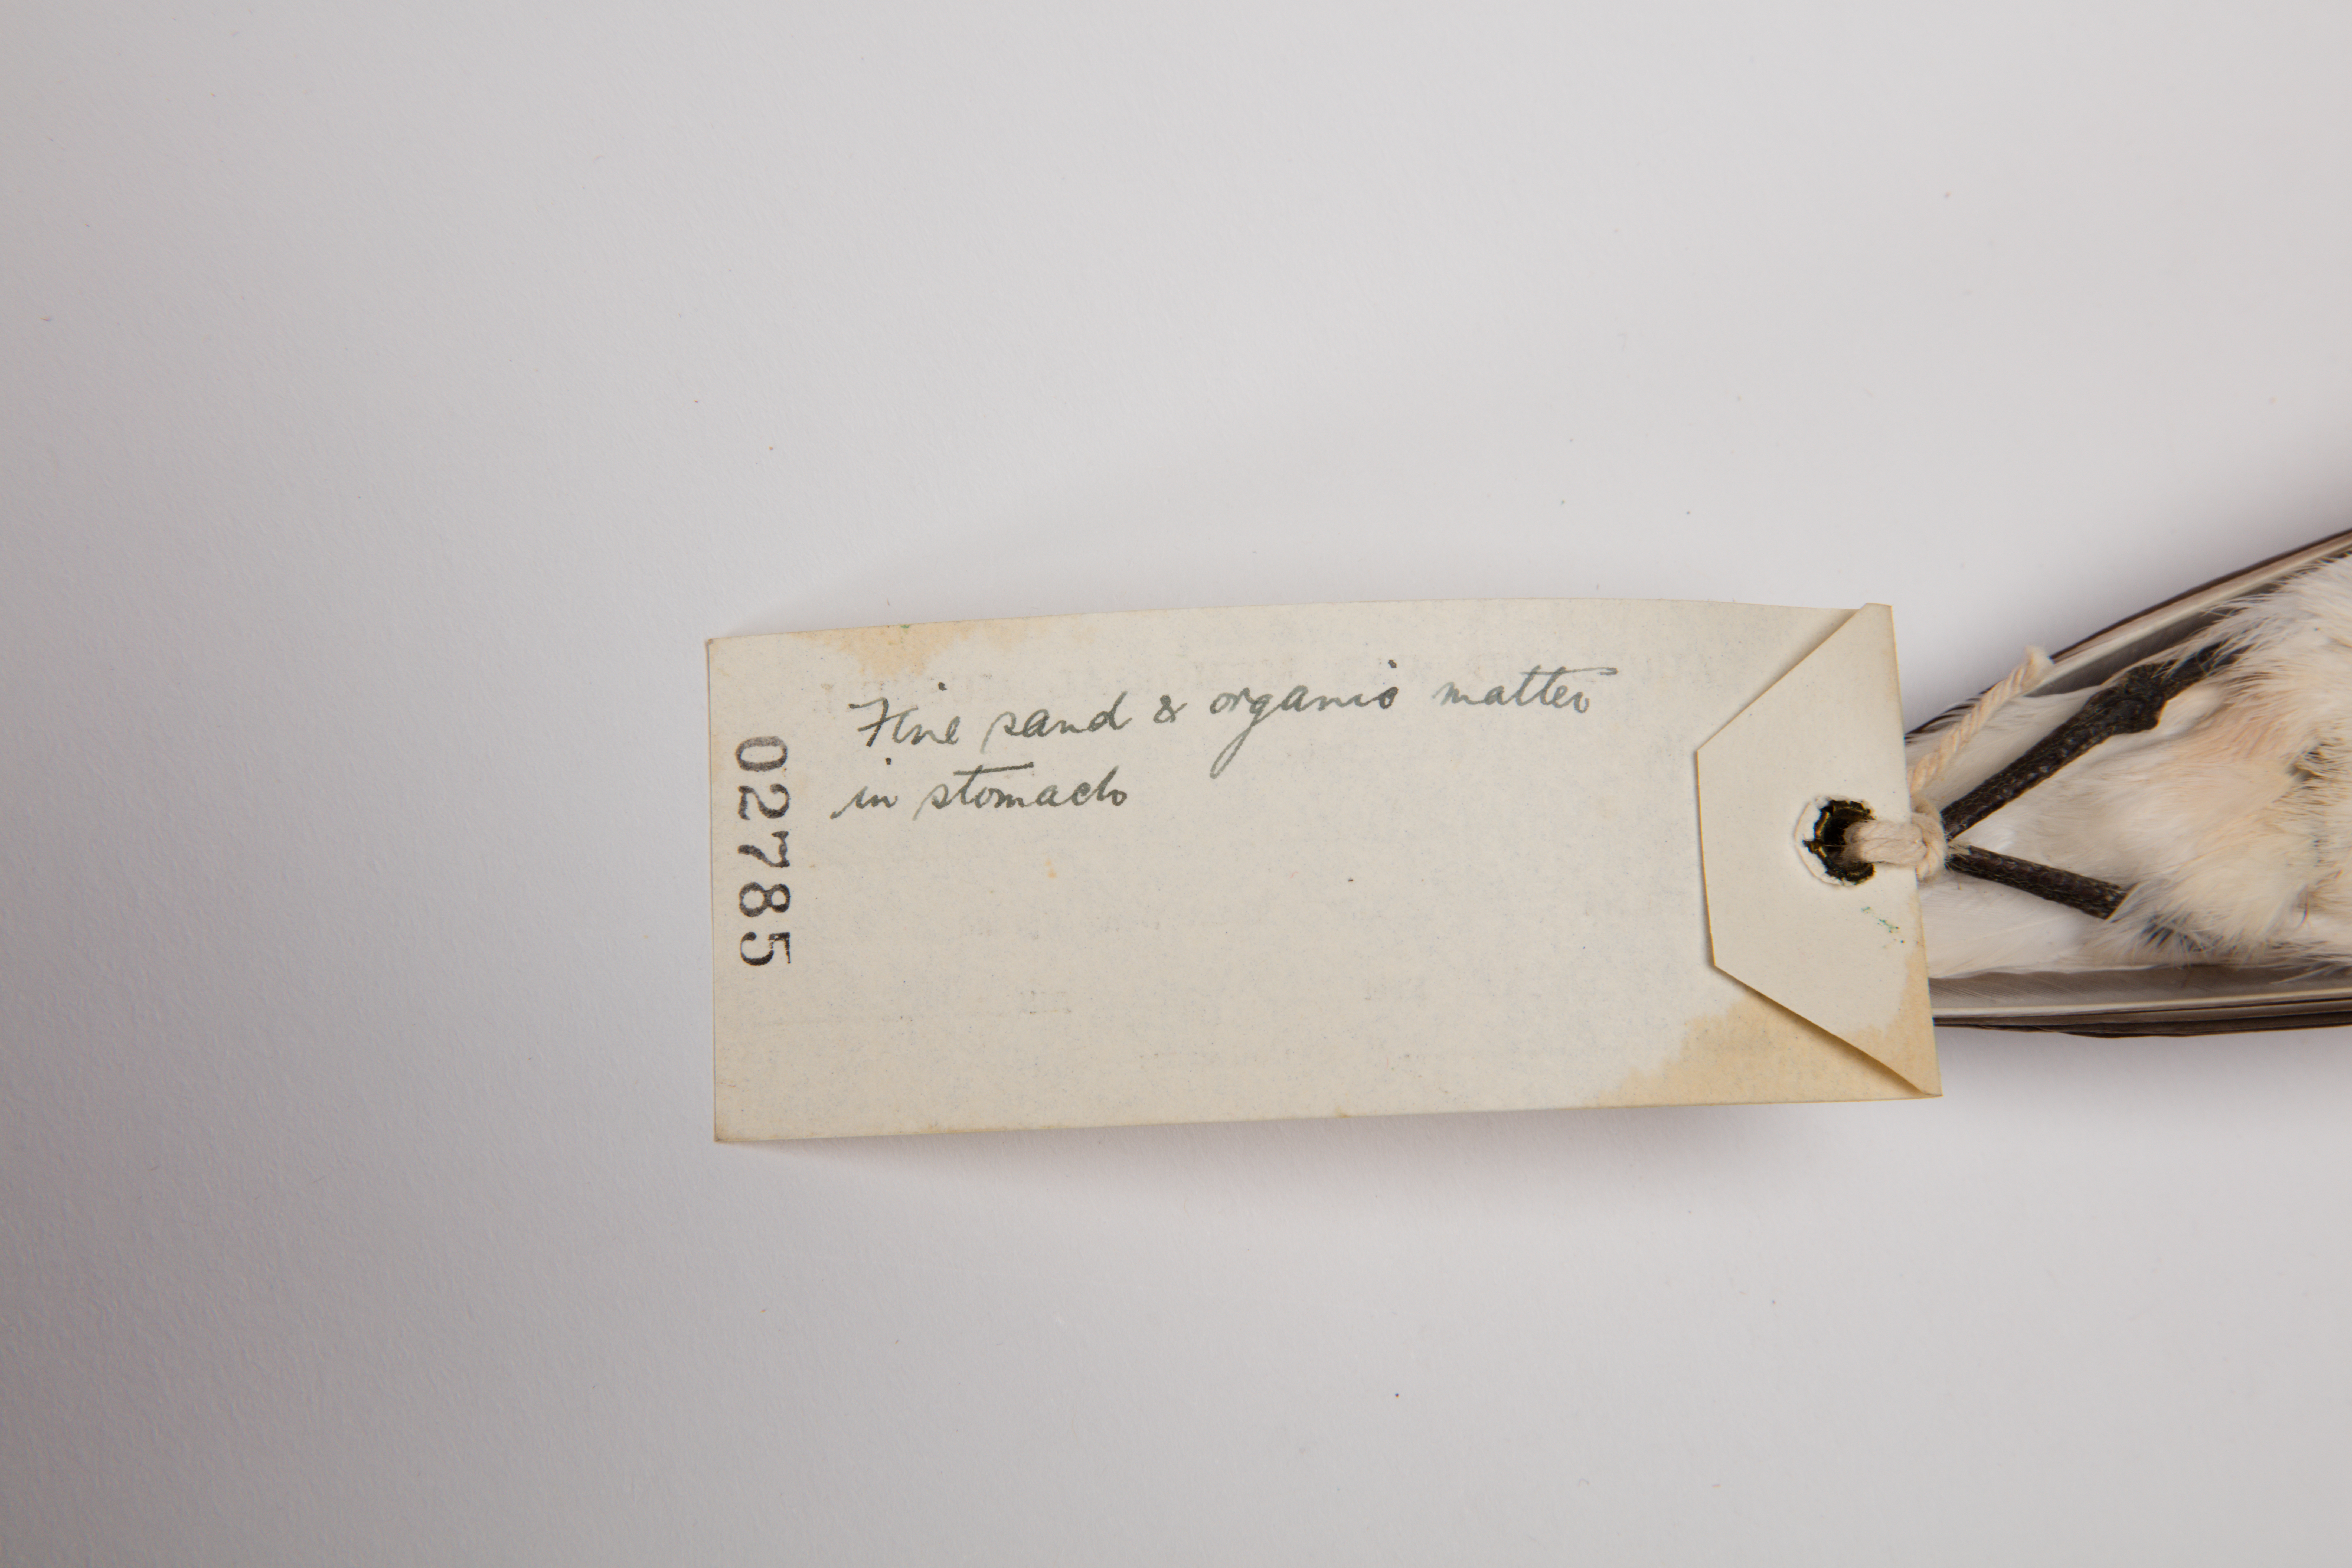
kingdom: Animalia
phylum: Chordata
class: Aves
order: Charadriiformes
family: Charadriidae
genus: Charadrius
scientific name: Charadrius bicinctus
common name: Double-banded plover
